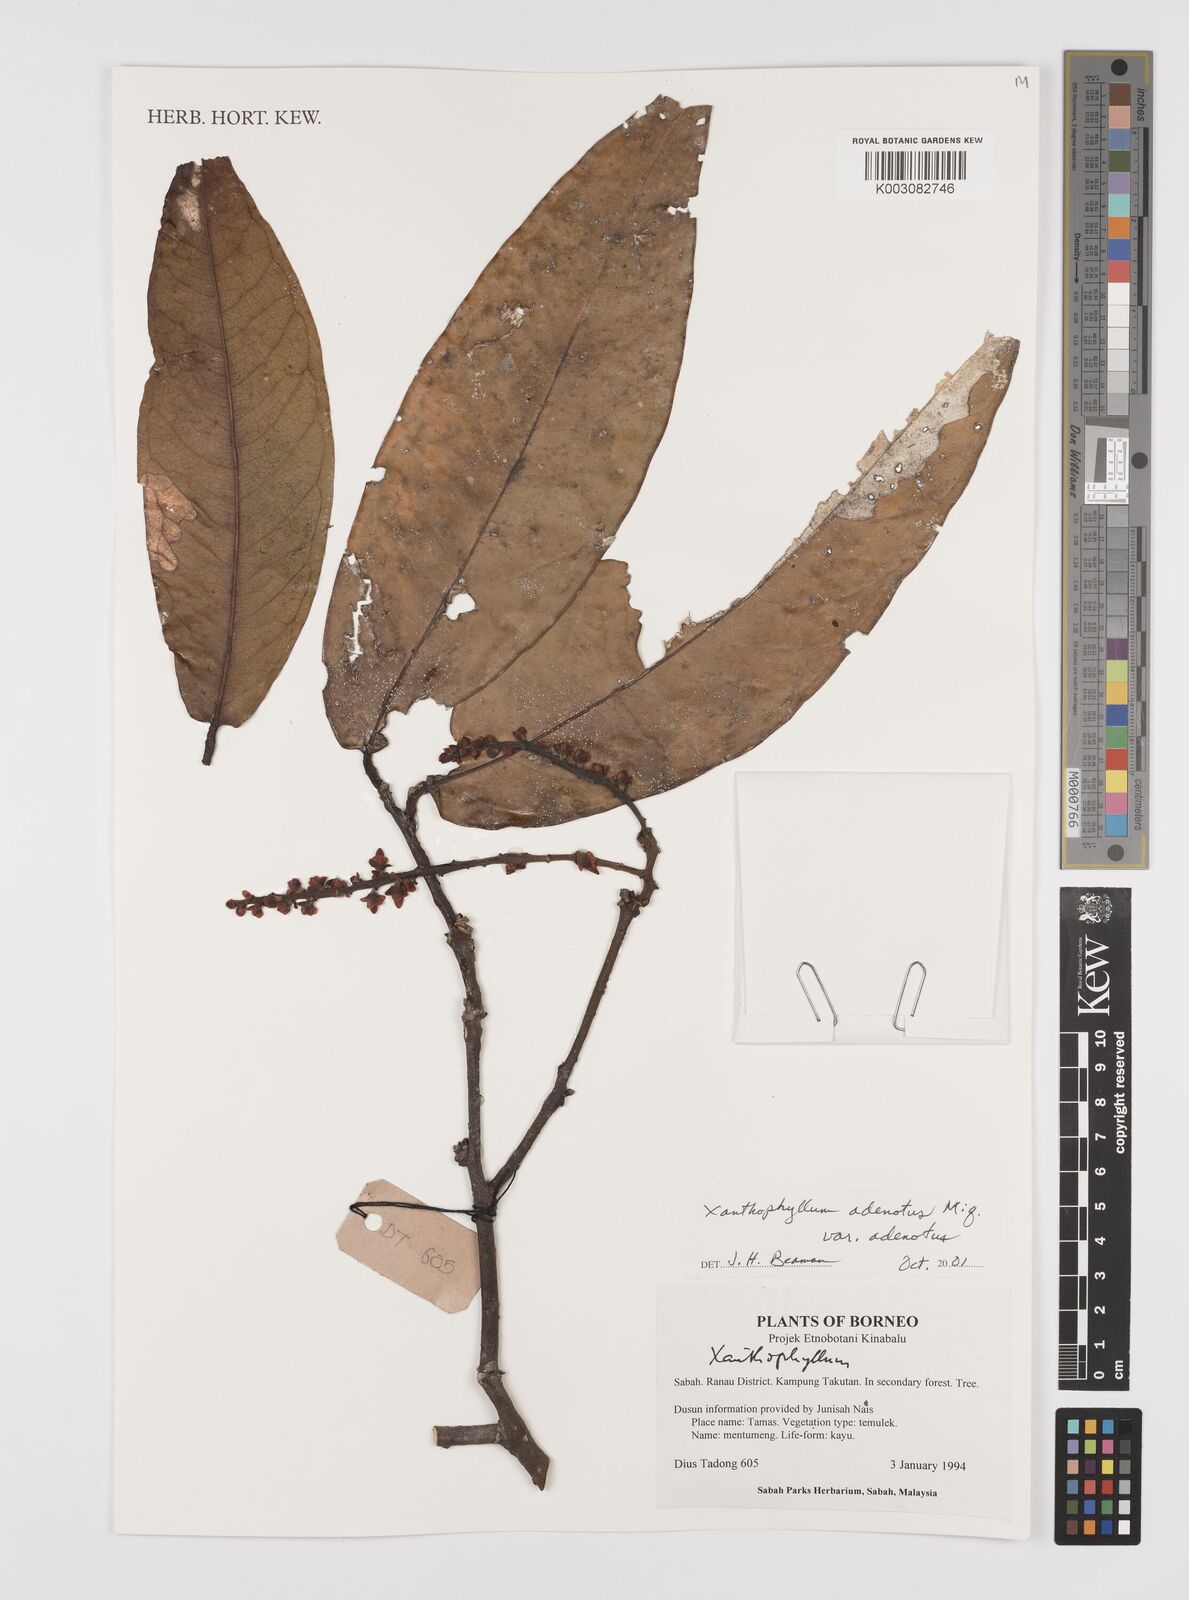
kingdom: Plantae
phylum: Tracheophyta
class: Magnoliopsida
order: Fabales
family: Polygalaceae
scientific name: Polygalaceae
